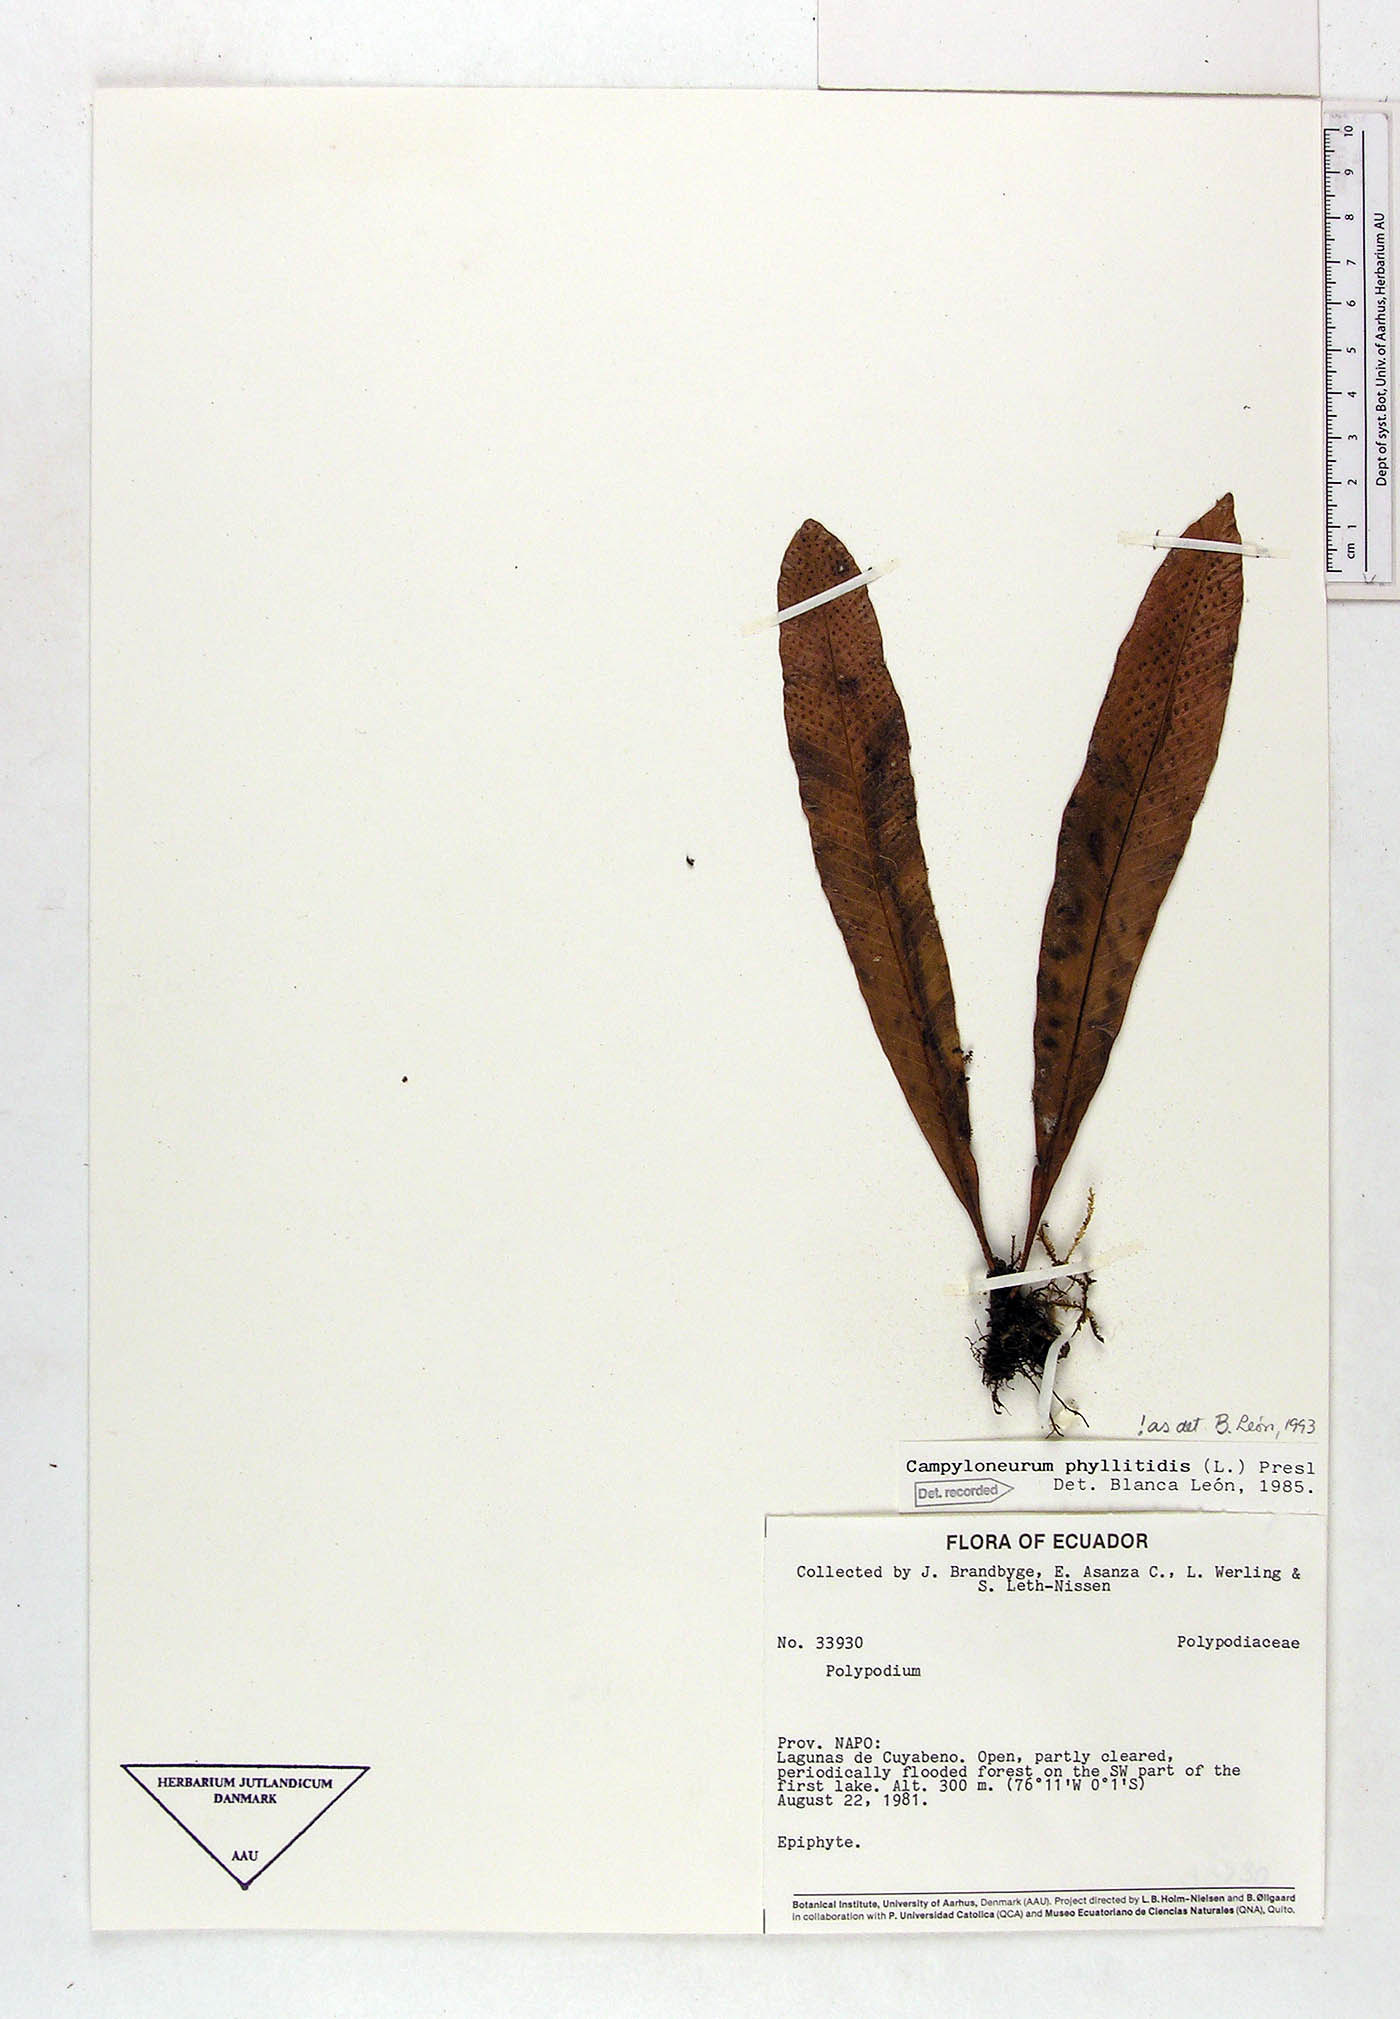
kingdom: Plantae
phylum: Tracheophyta
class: Polypodiopsida
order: Polypodiales
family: Polypodiaceae
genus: Campyloneurum
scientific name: Campyloneurum phyllitidis
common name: Cow-tongue fern
